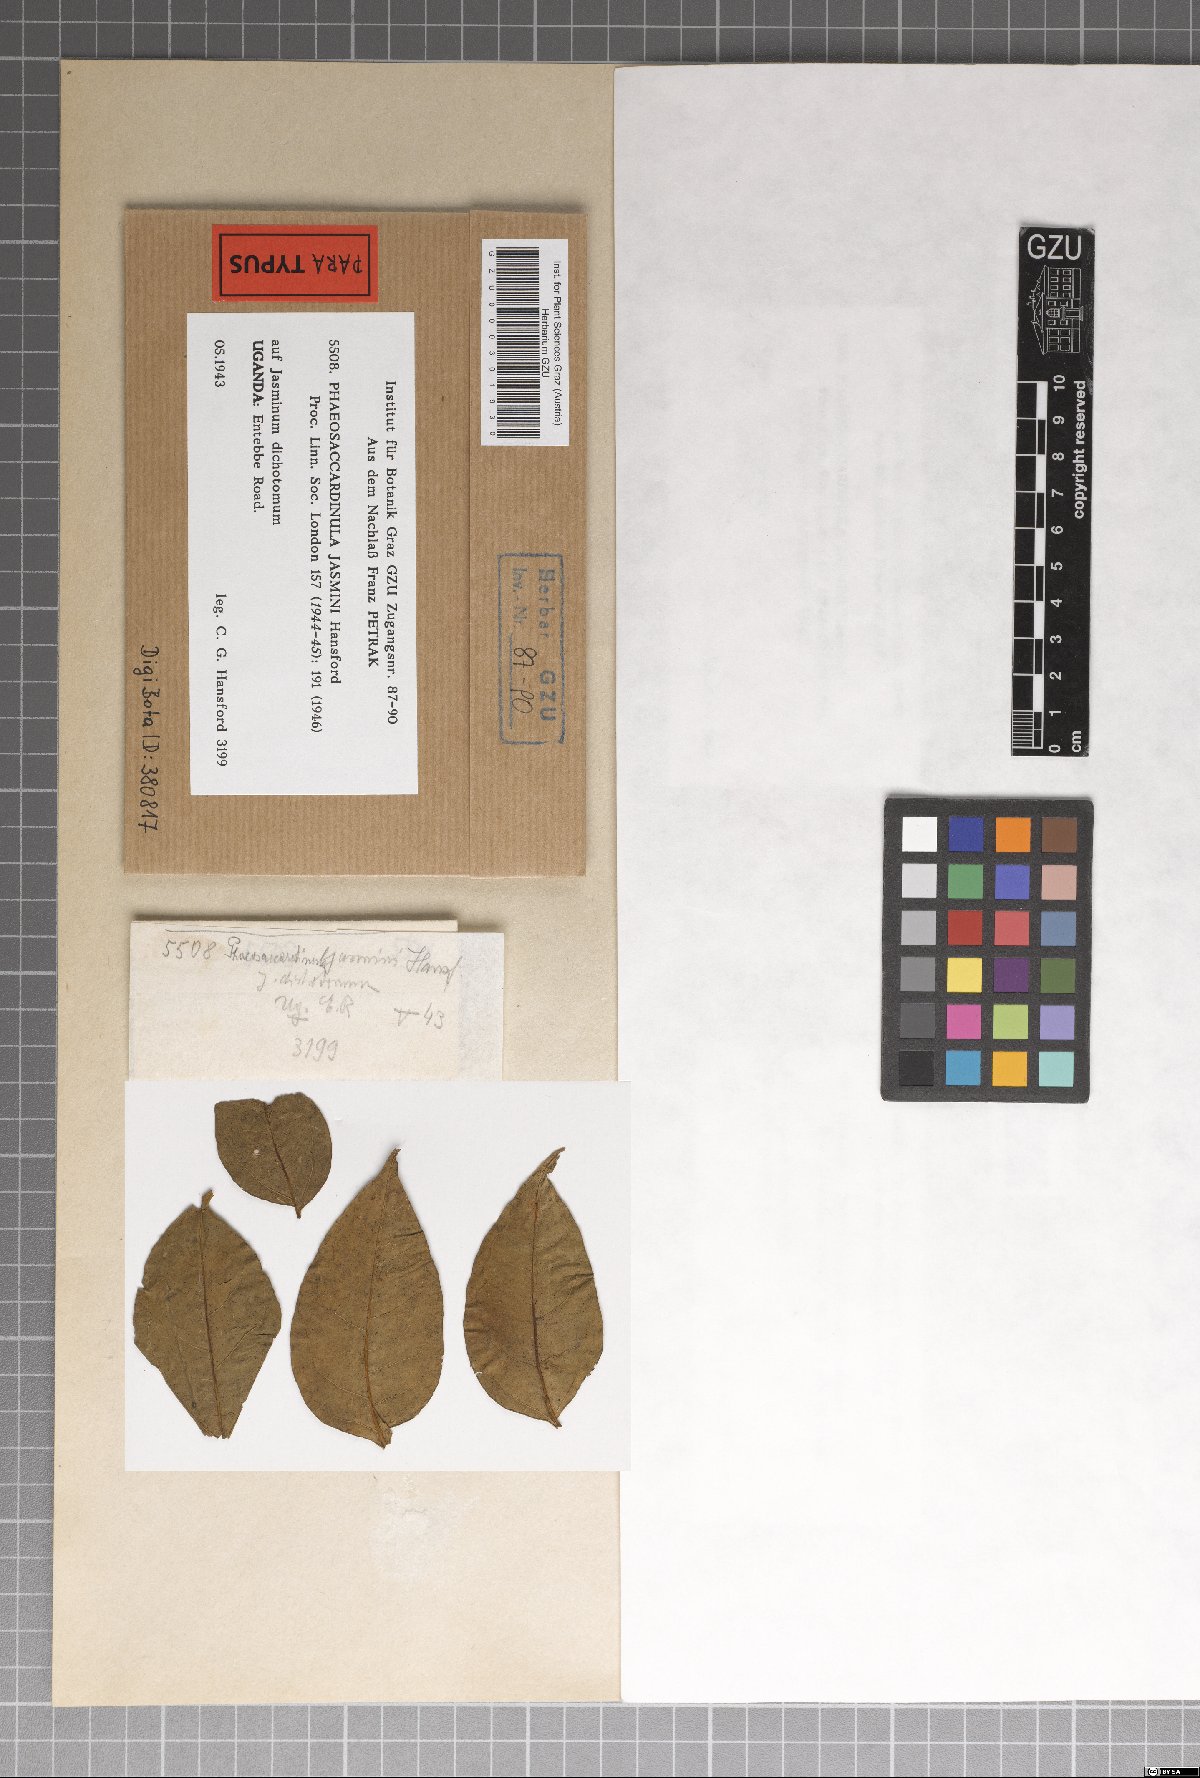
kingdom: Fungi
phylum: Ascomycota
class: Eurotiomycetes
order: Chaetothyriales
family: Chaetothyriaceae
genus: Phaeosaccardinula
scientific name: Phaeosaccardinula jasmini
